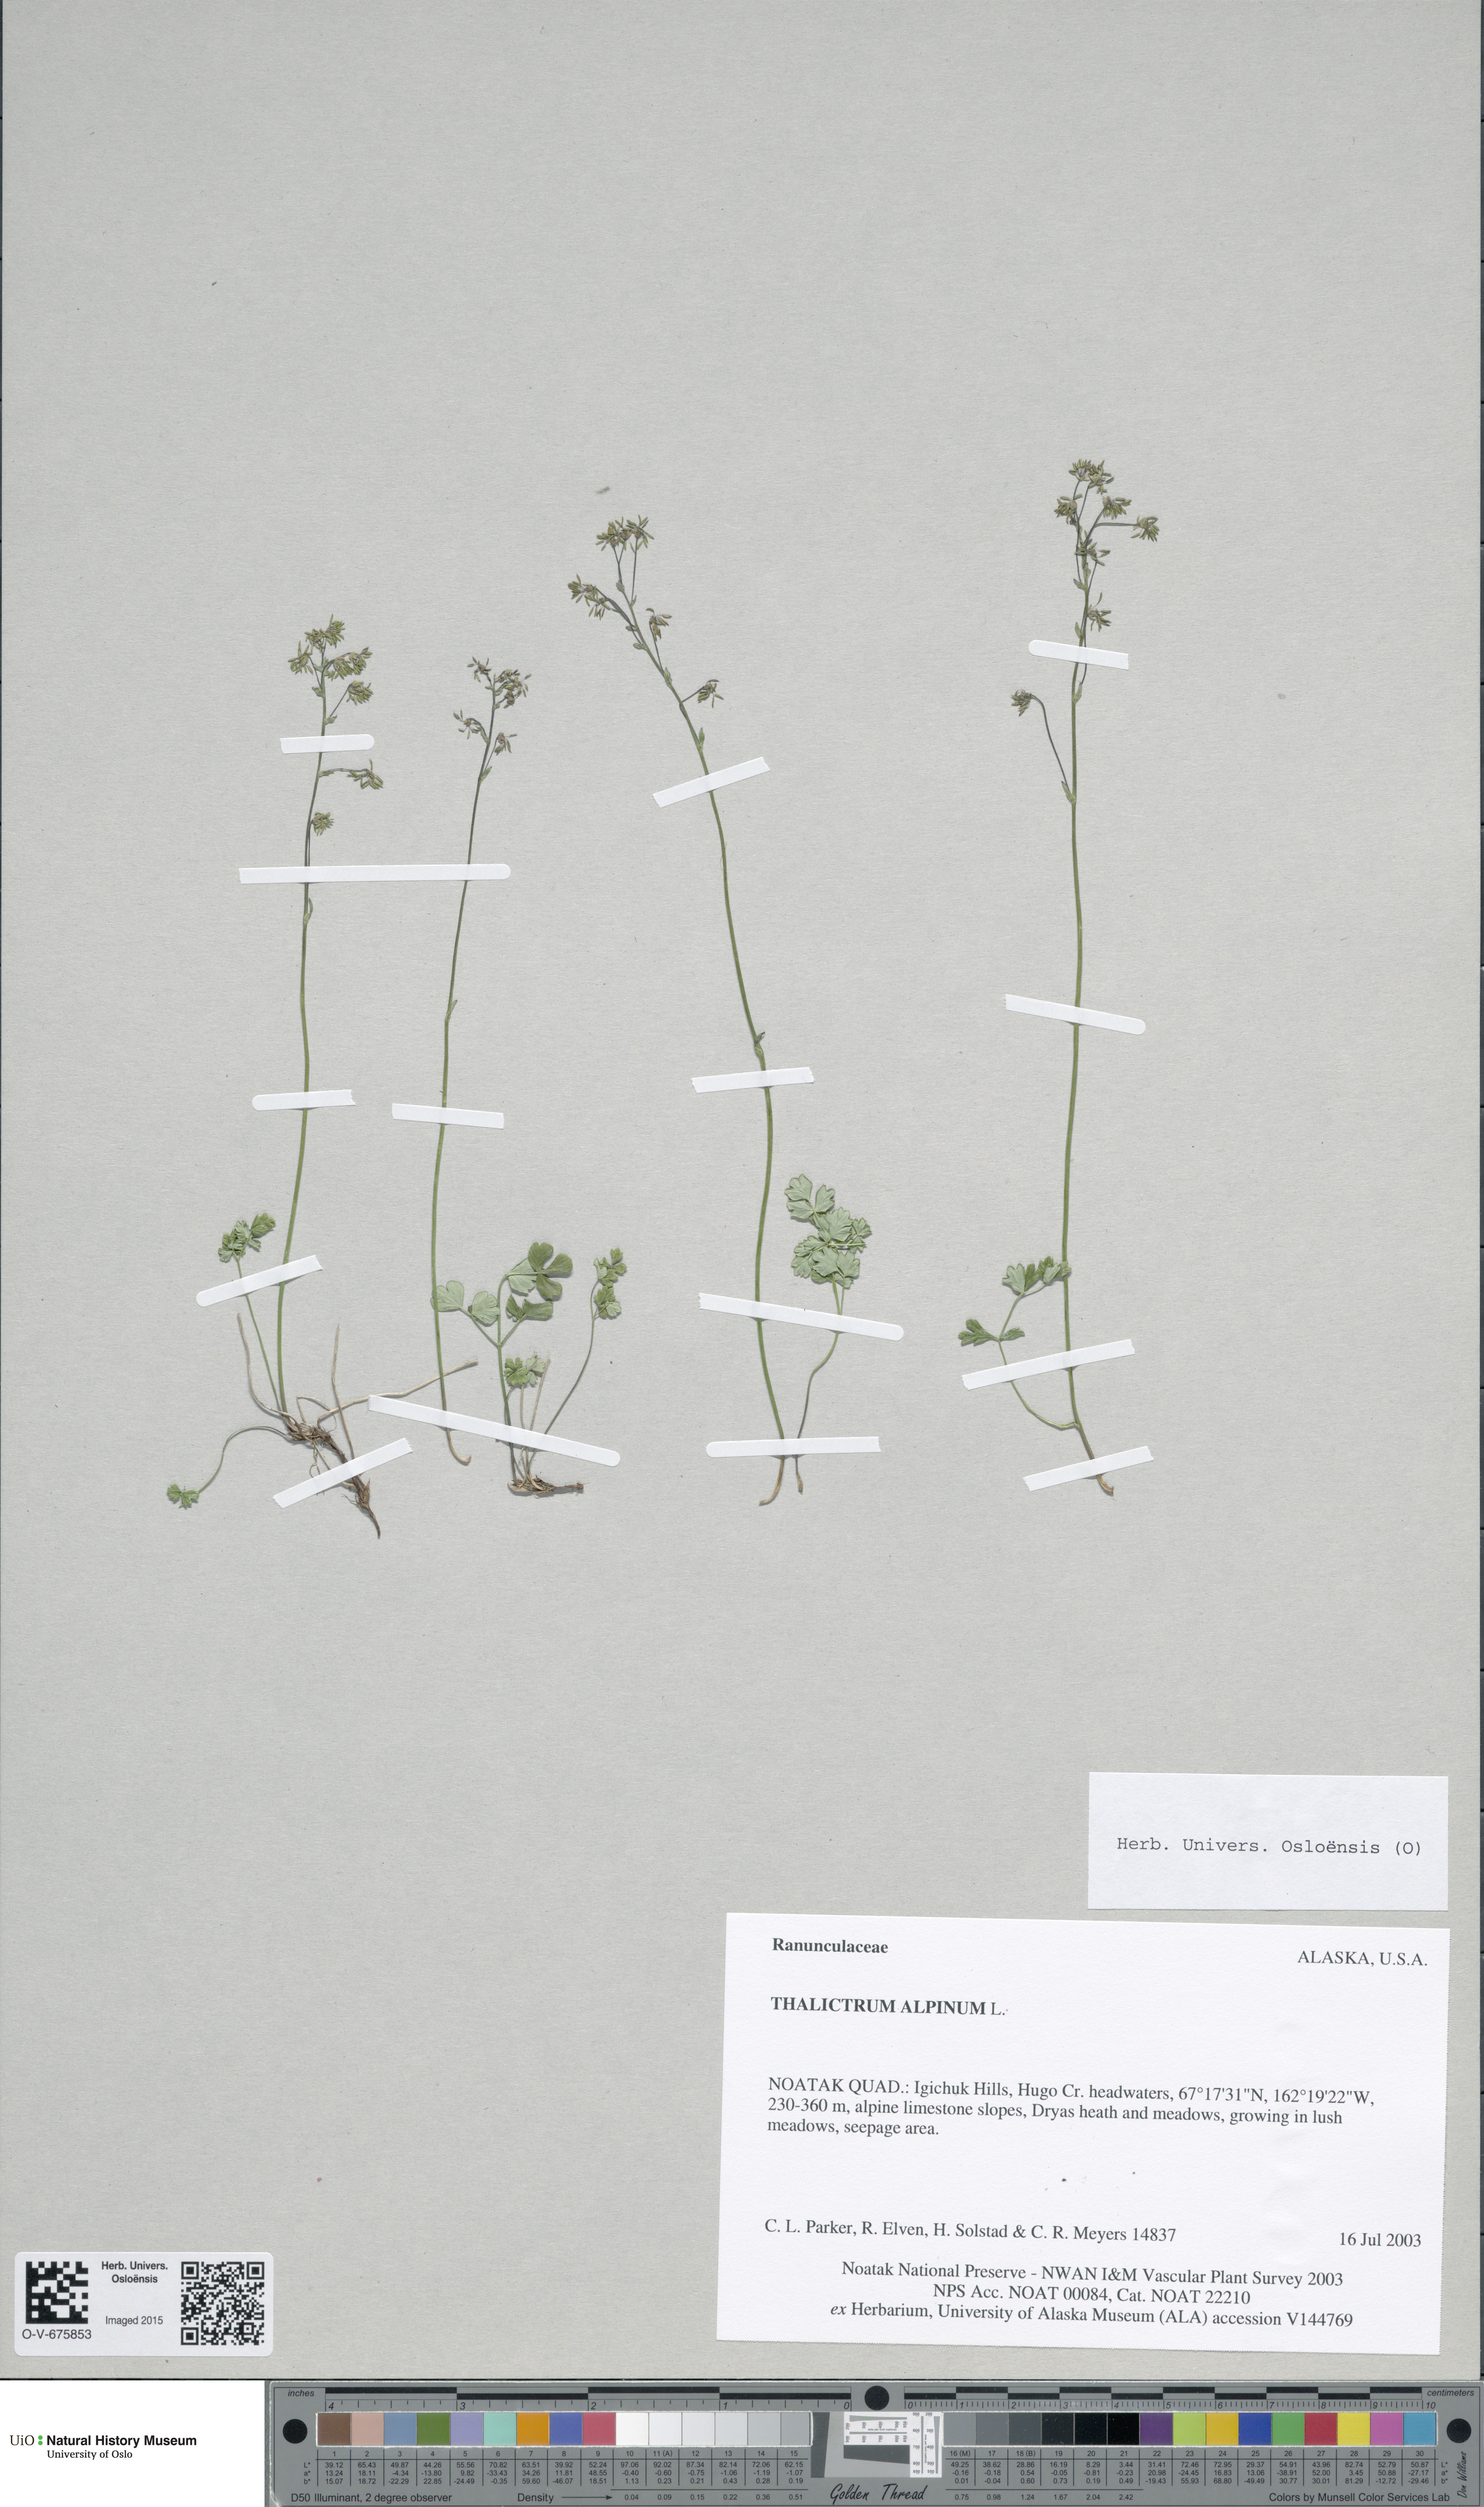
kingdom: Plantae
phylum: Tracheophyta
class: Magnoliopsida
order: Ranunculales
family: Ranunculaceae
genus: Thalictrum
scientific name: Thalictrum alpinum
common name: Alpine meadow-rue
